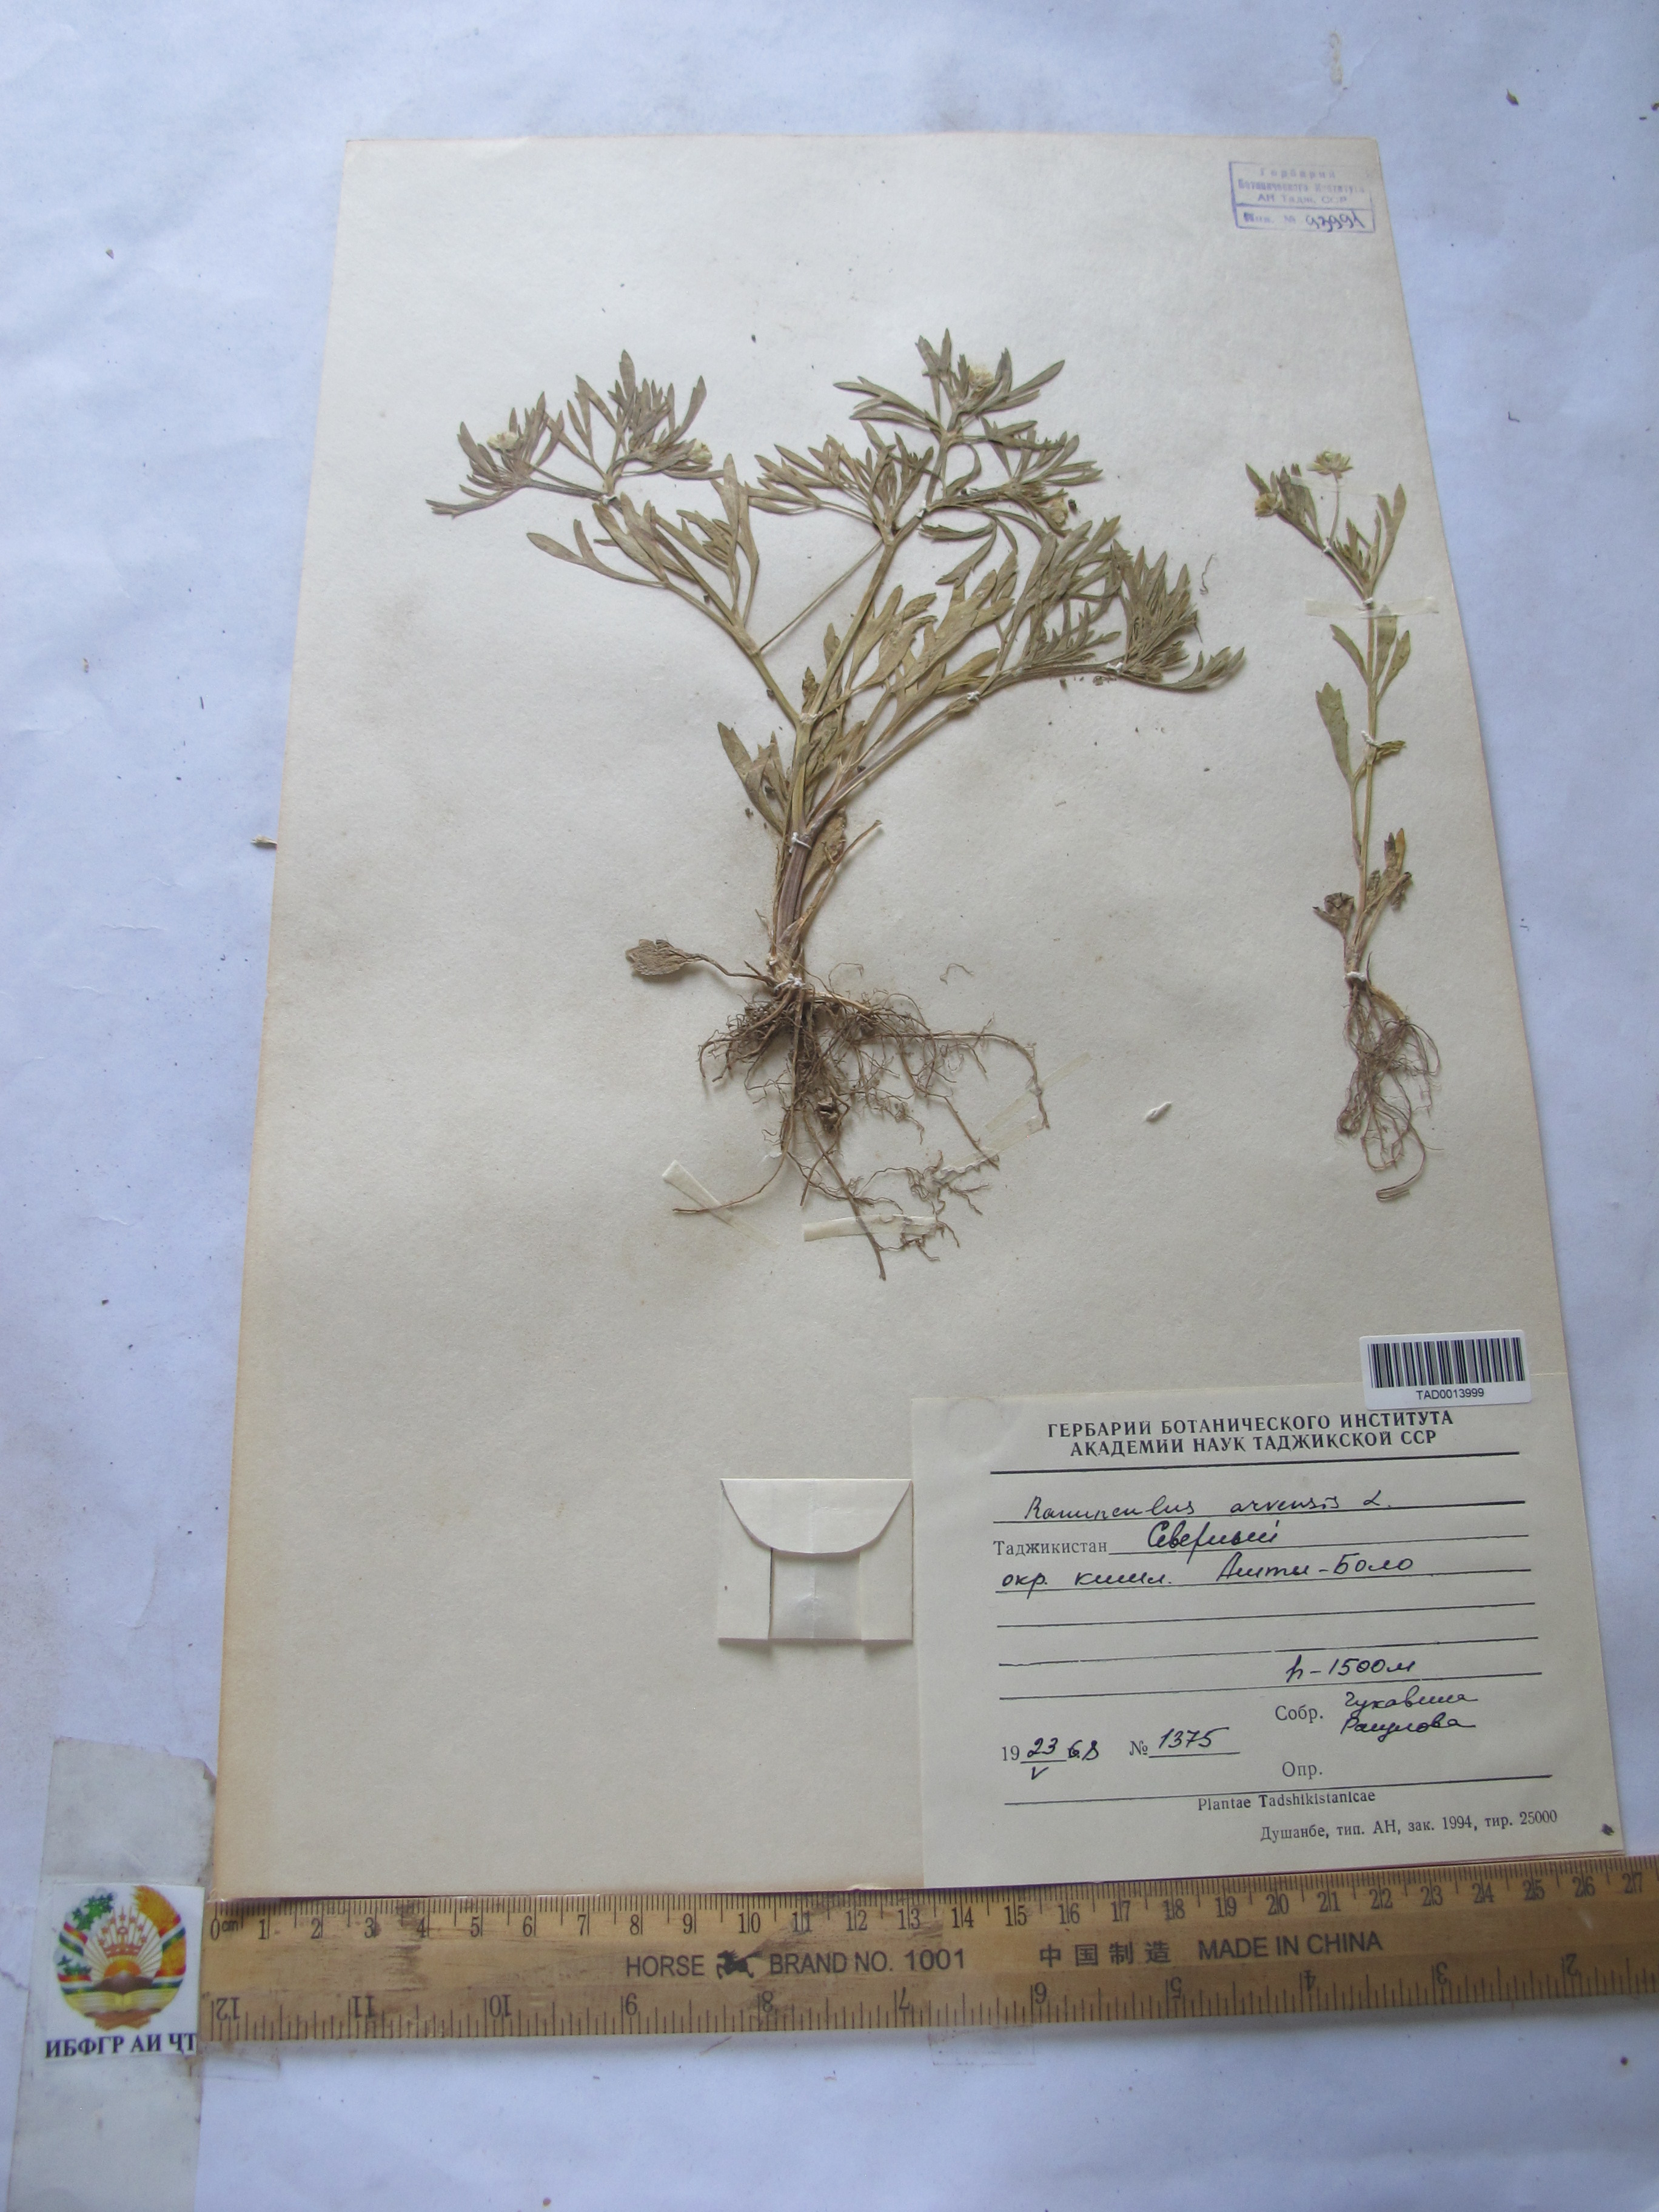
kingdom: Plantae
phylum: Tracheophyta
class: Magnoliopsida
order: Ranunculales
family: Ranunculaceae
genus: Ranunculus
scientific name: Ranunculus arvensis
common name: Corn buttercup
